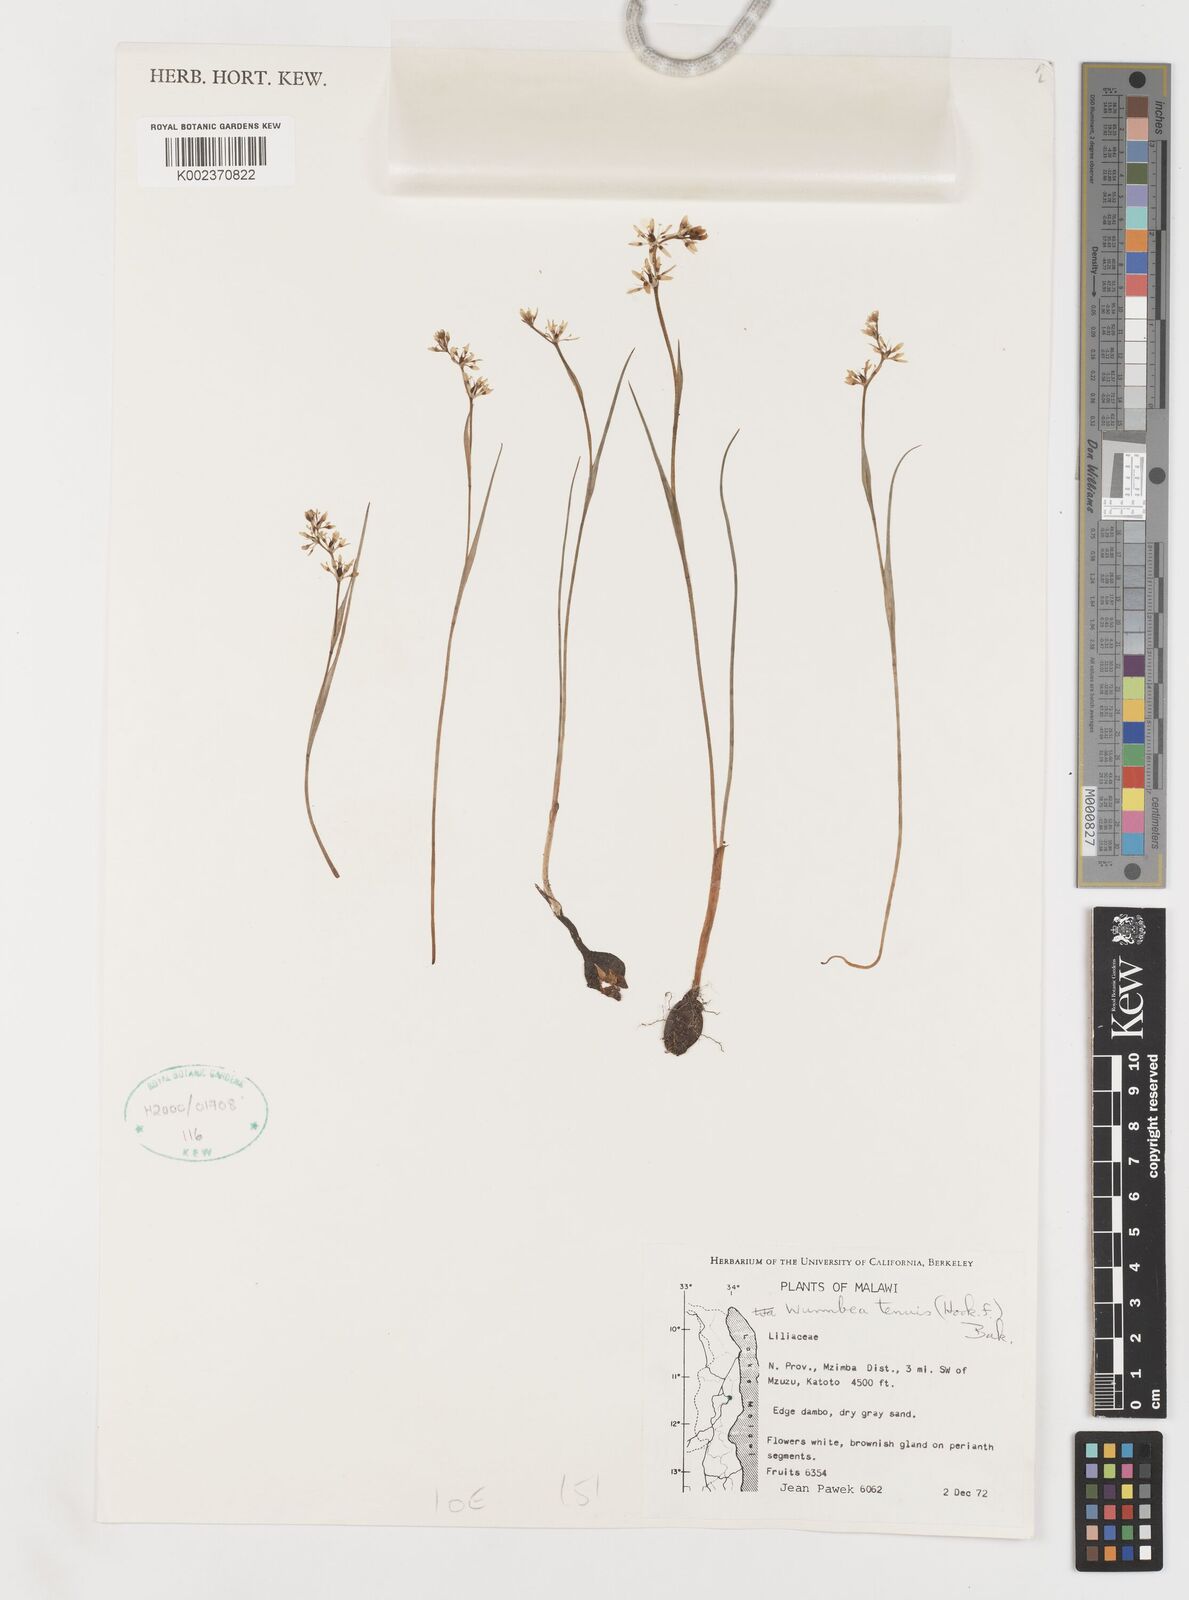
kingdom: Plantae
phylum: Tracheophyta
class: Liliopsida
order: Liliales
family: Colchicaceae
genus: Wurmbea
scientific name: Wurmbea tenuis
